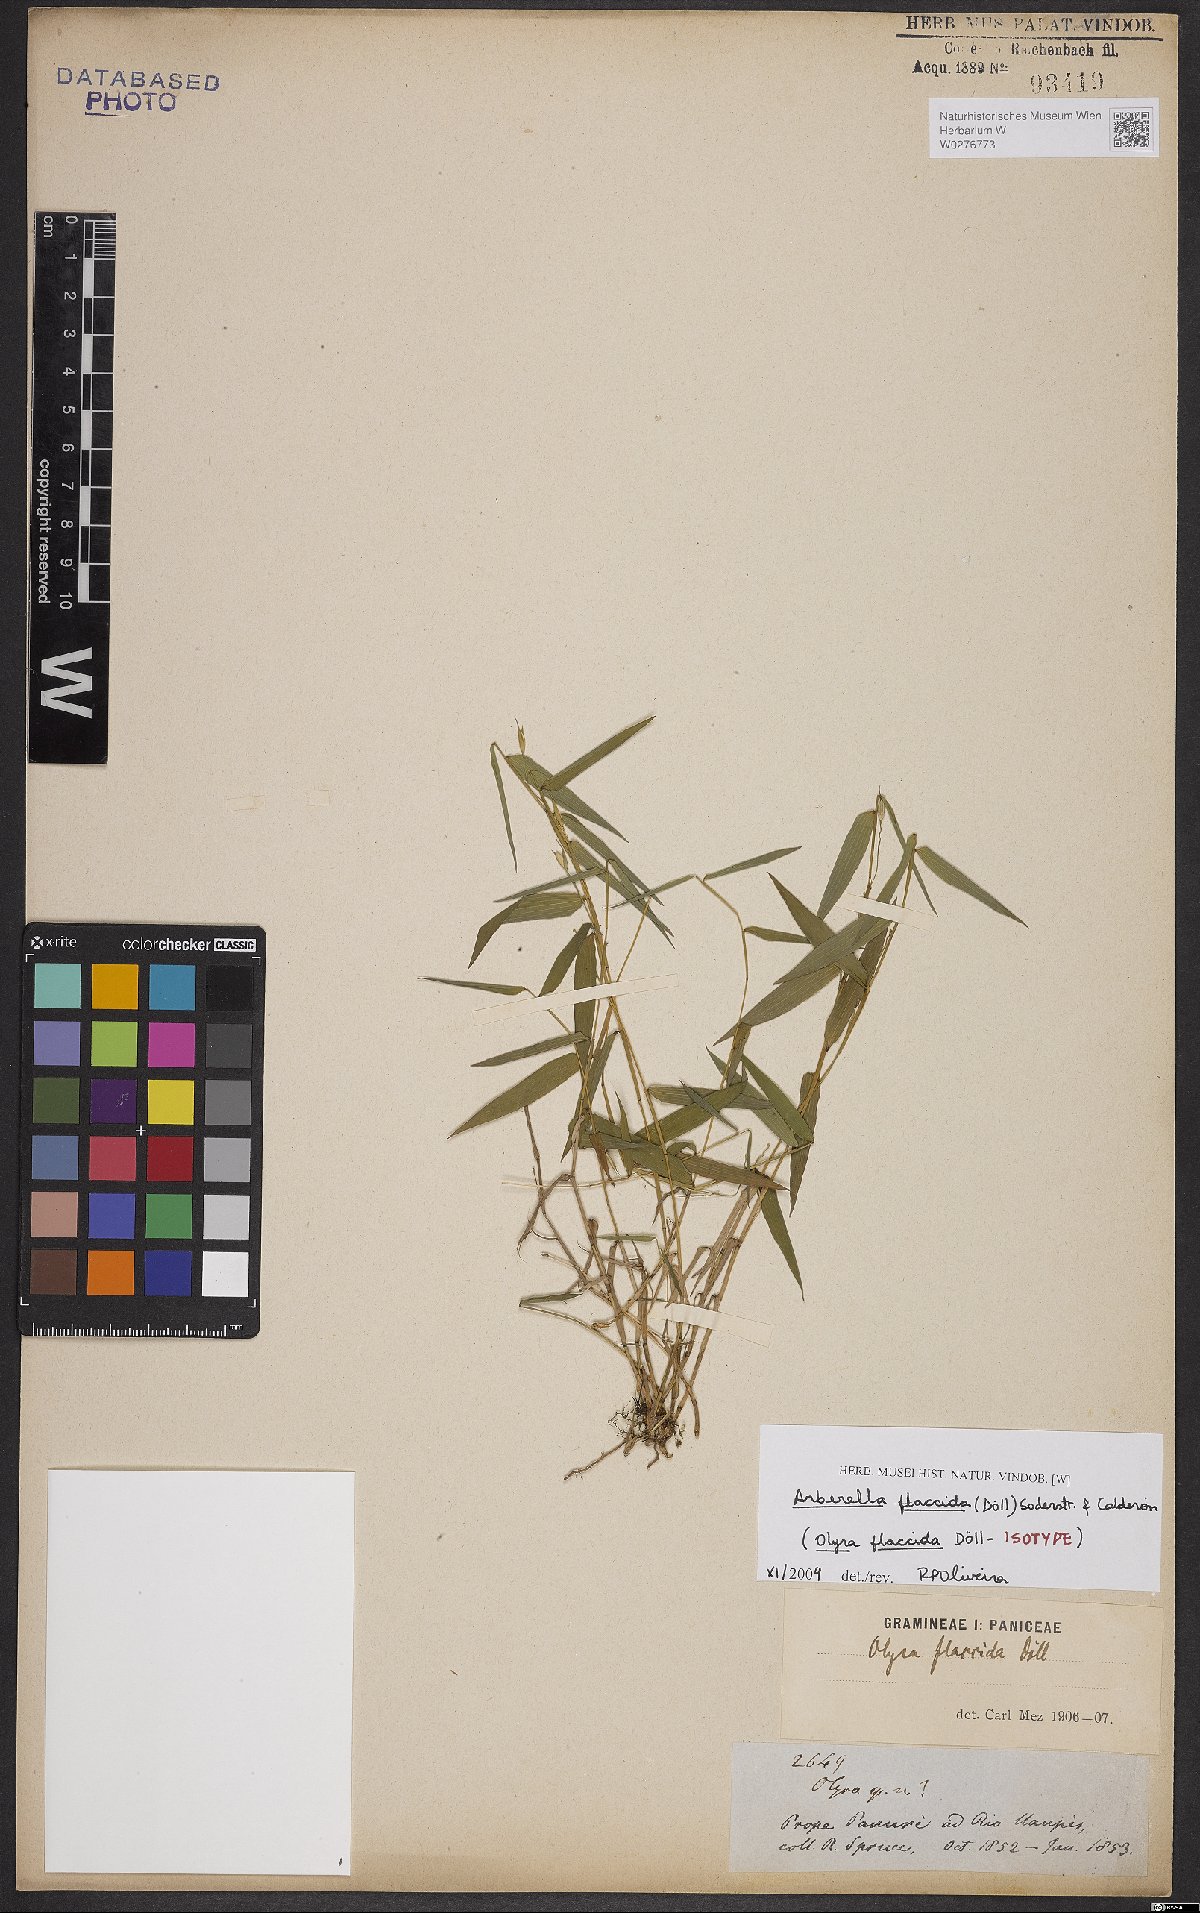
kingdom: Plantae
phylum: Tracheophyta
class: Liliopsida
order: Poales
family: Poaceae
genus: Arberella
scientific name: Arberella flaccida
